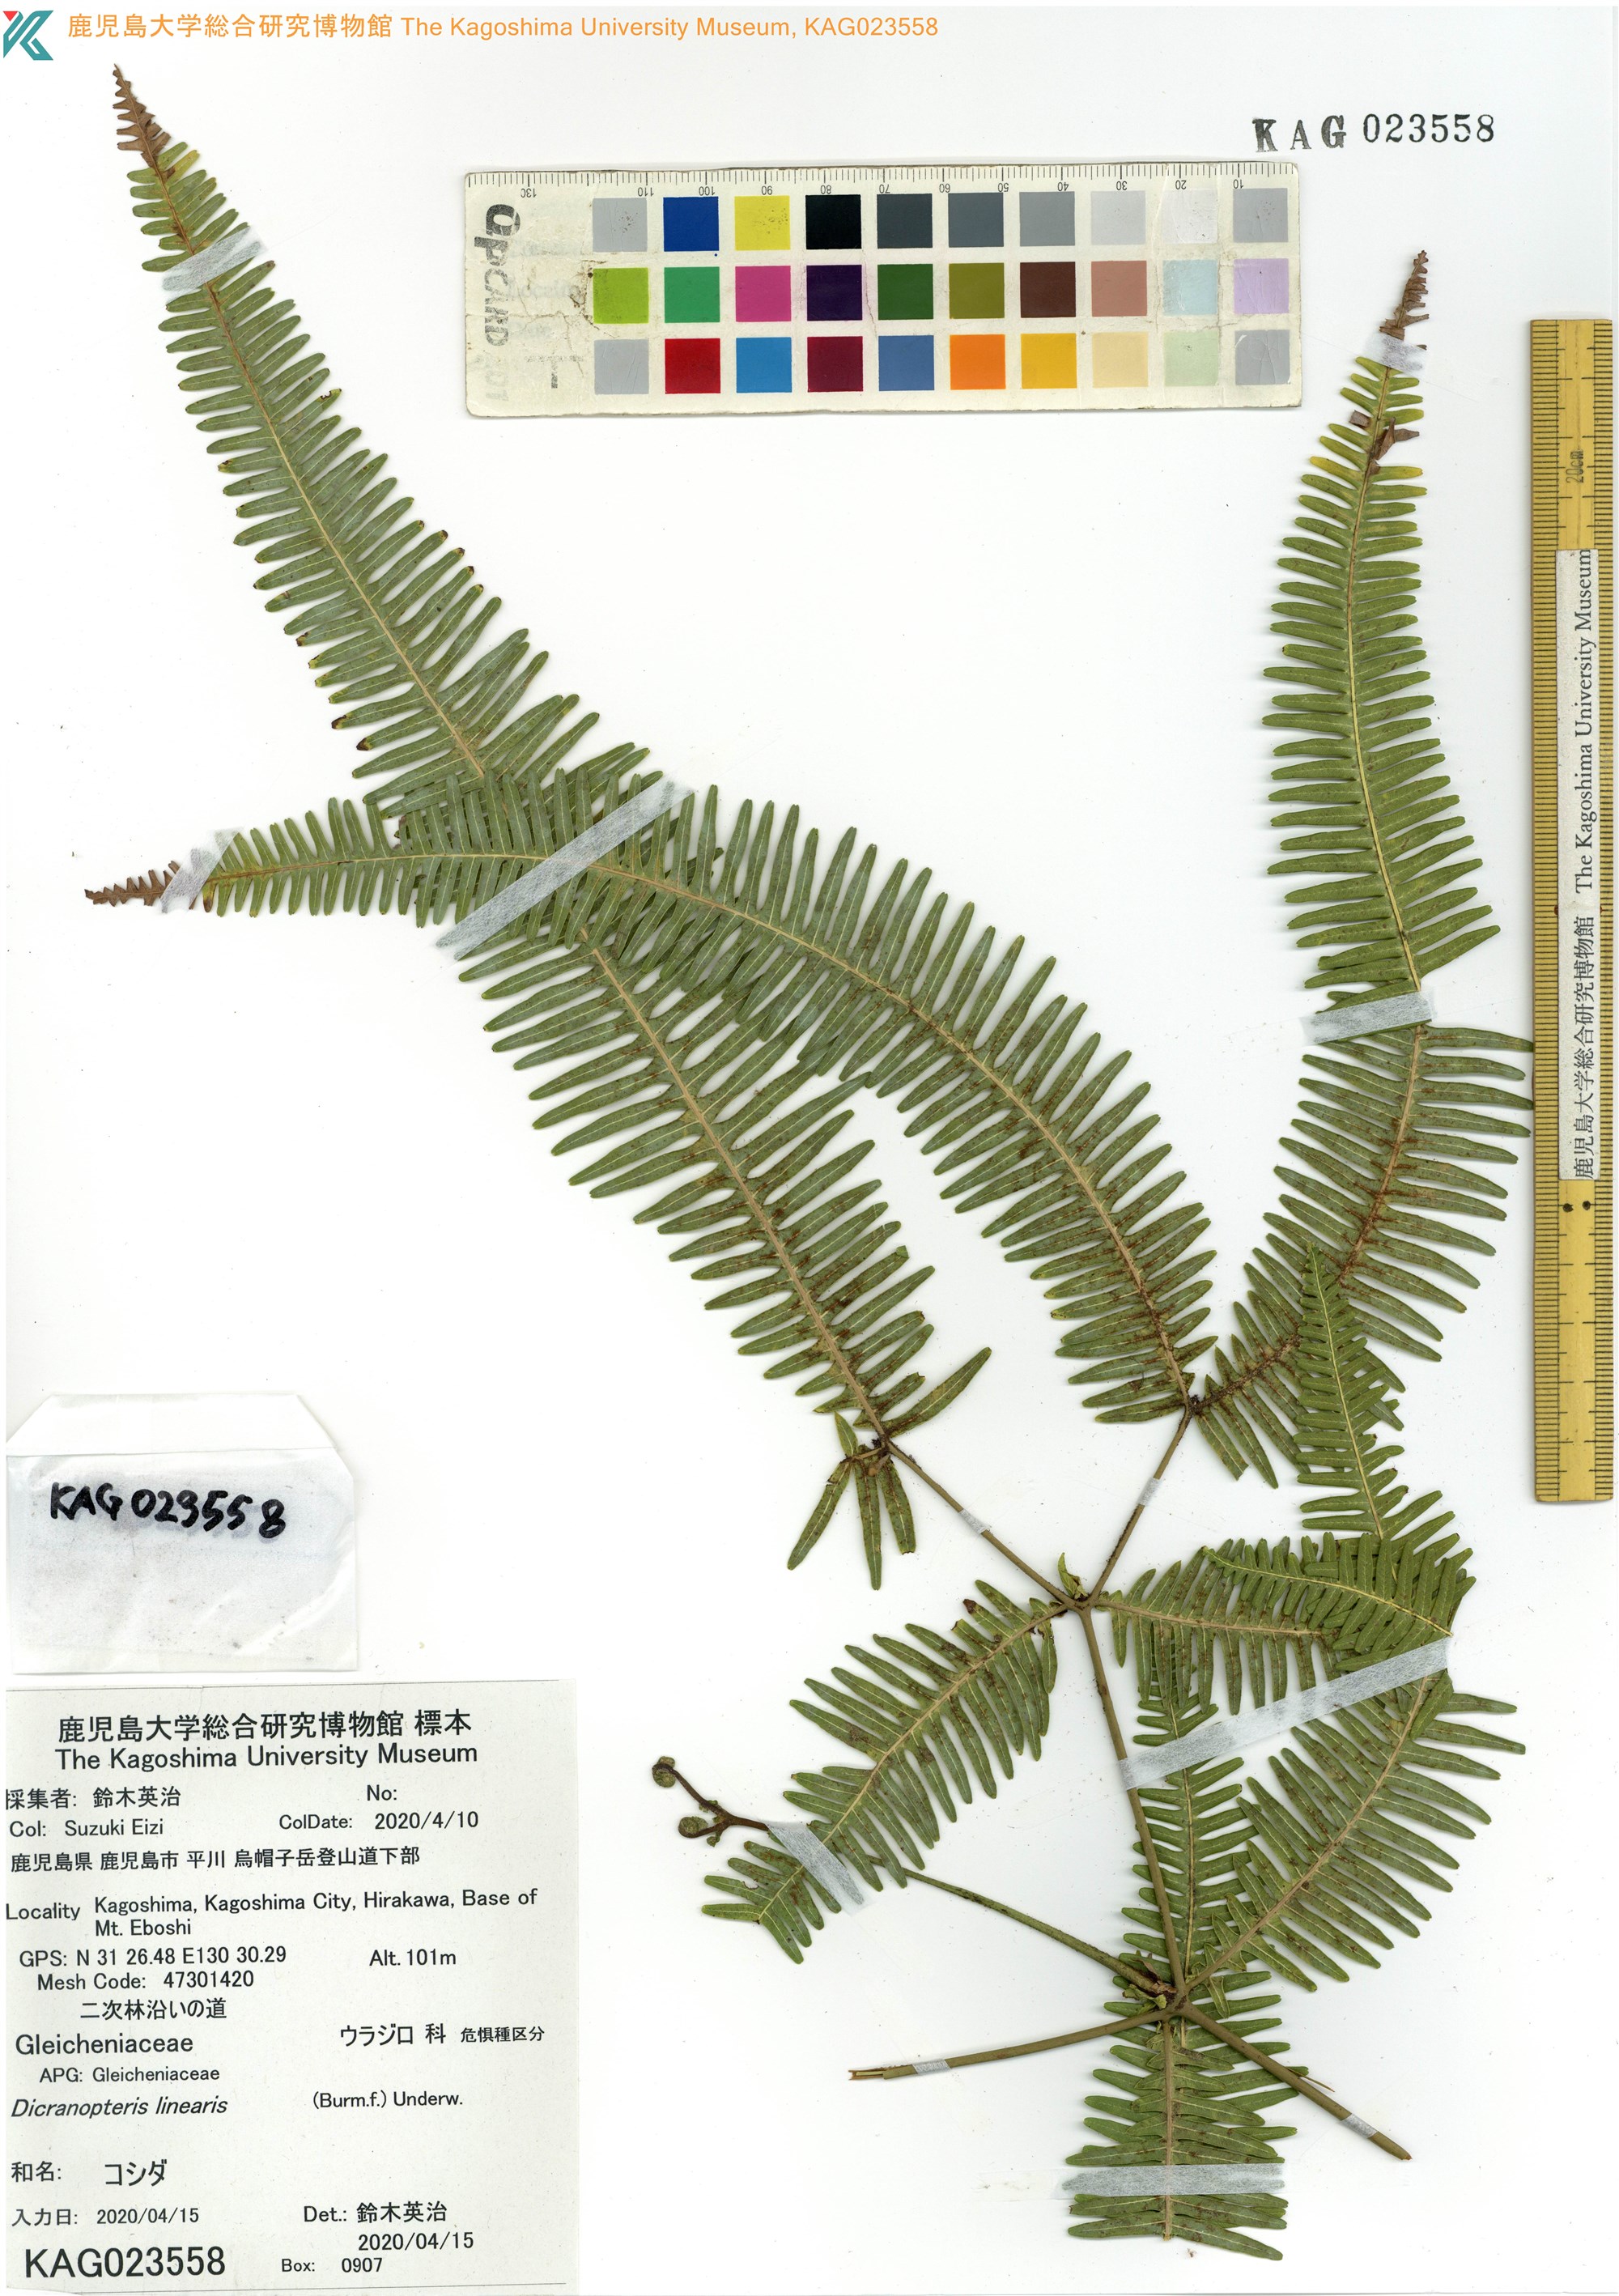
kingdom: Plantae
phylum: Tracheophyta
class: Polypodiopsida
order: Gleicheniales
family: Gleicheniaceae
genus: Dicranopteris
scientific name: Dicranopteris linearis
